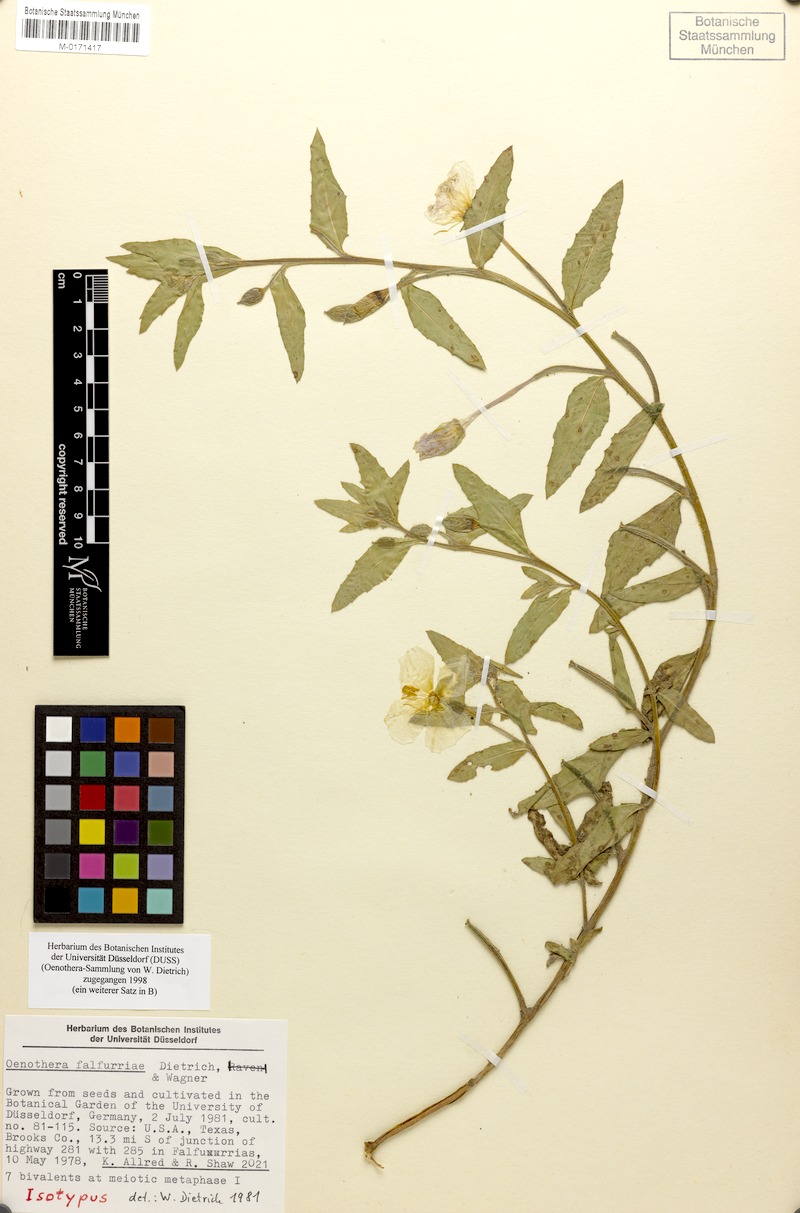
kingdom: Plantae
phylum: Tracheophyta
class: Magnoliopsida
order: Myrtales
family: Onagraceae
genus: Oenothera
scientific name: Oenothera falfurriae
